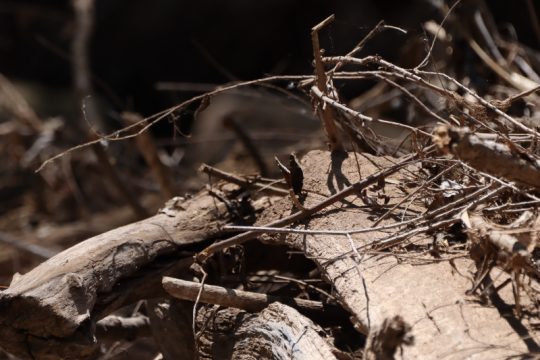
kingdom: Animalia
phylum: Arthropoda
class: Insecta
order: Lepidoptera
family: Nymphalidae
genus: Nymphalis
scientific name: Nymphalis antiopa
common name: Mourning Cloak
